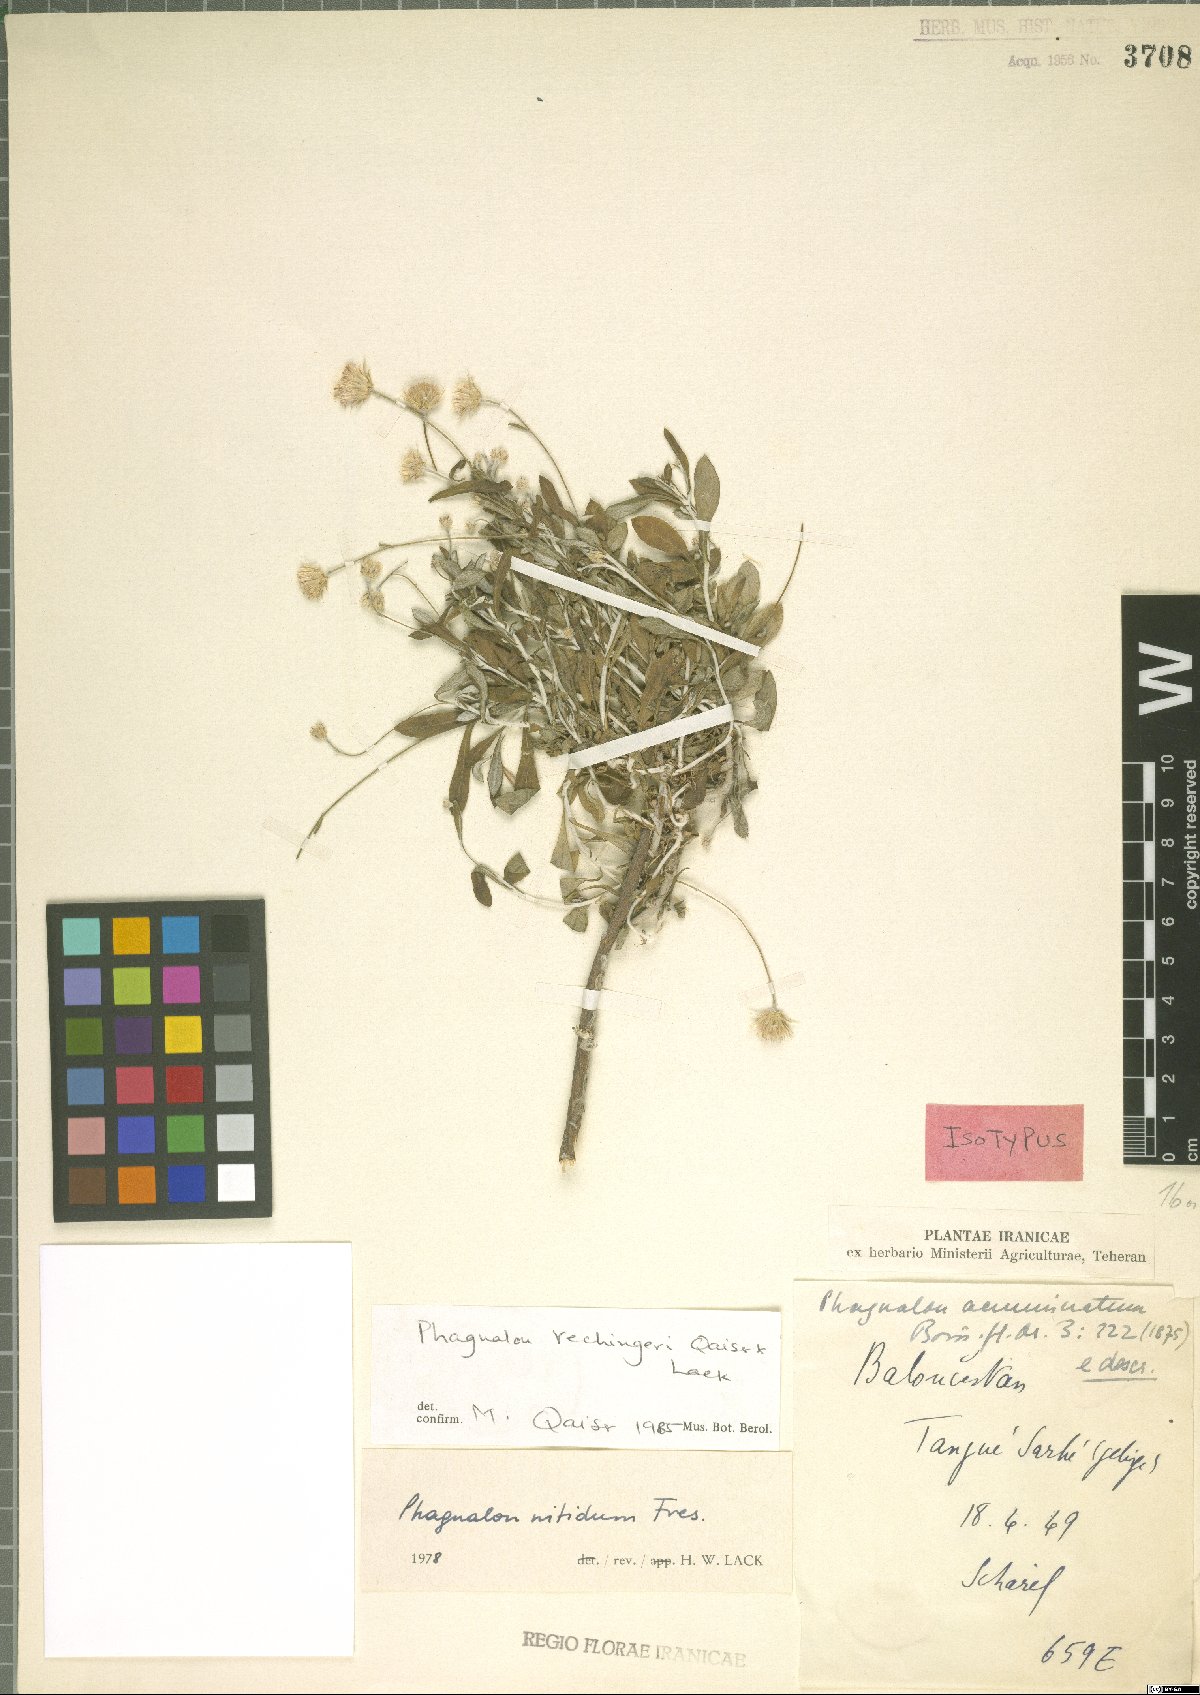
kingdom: Plantae
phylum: Tracheophyta
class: Magnoliopsida
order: Asterales
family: Asteraceae
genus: Phagnalon
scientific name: Phagnalon rechingeri
